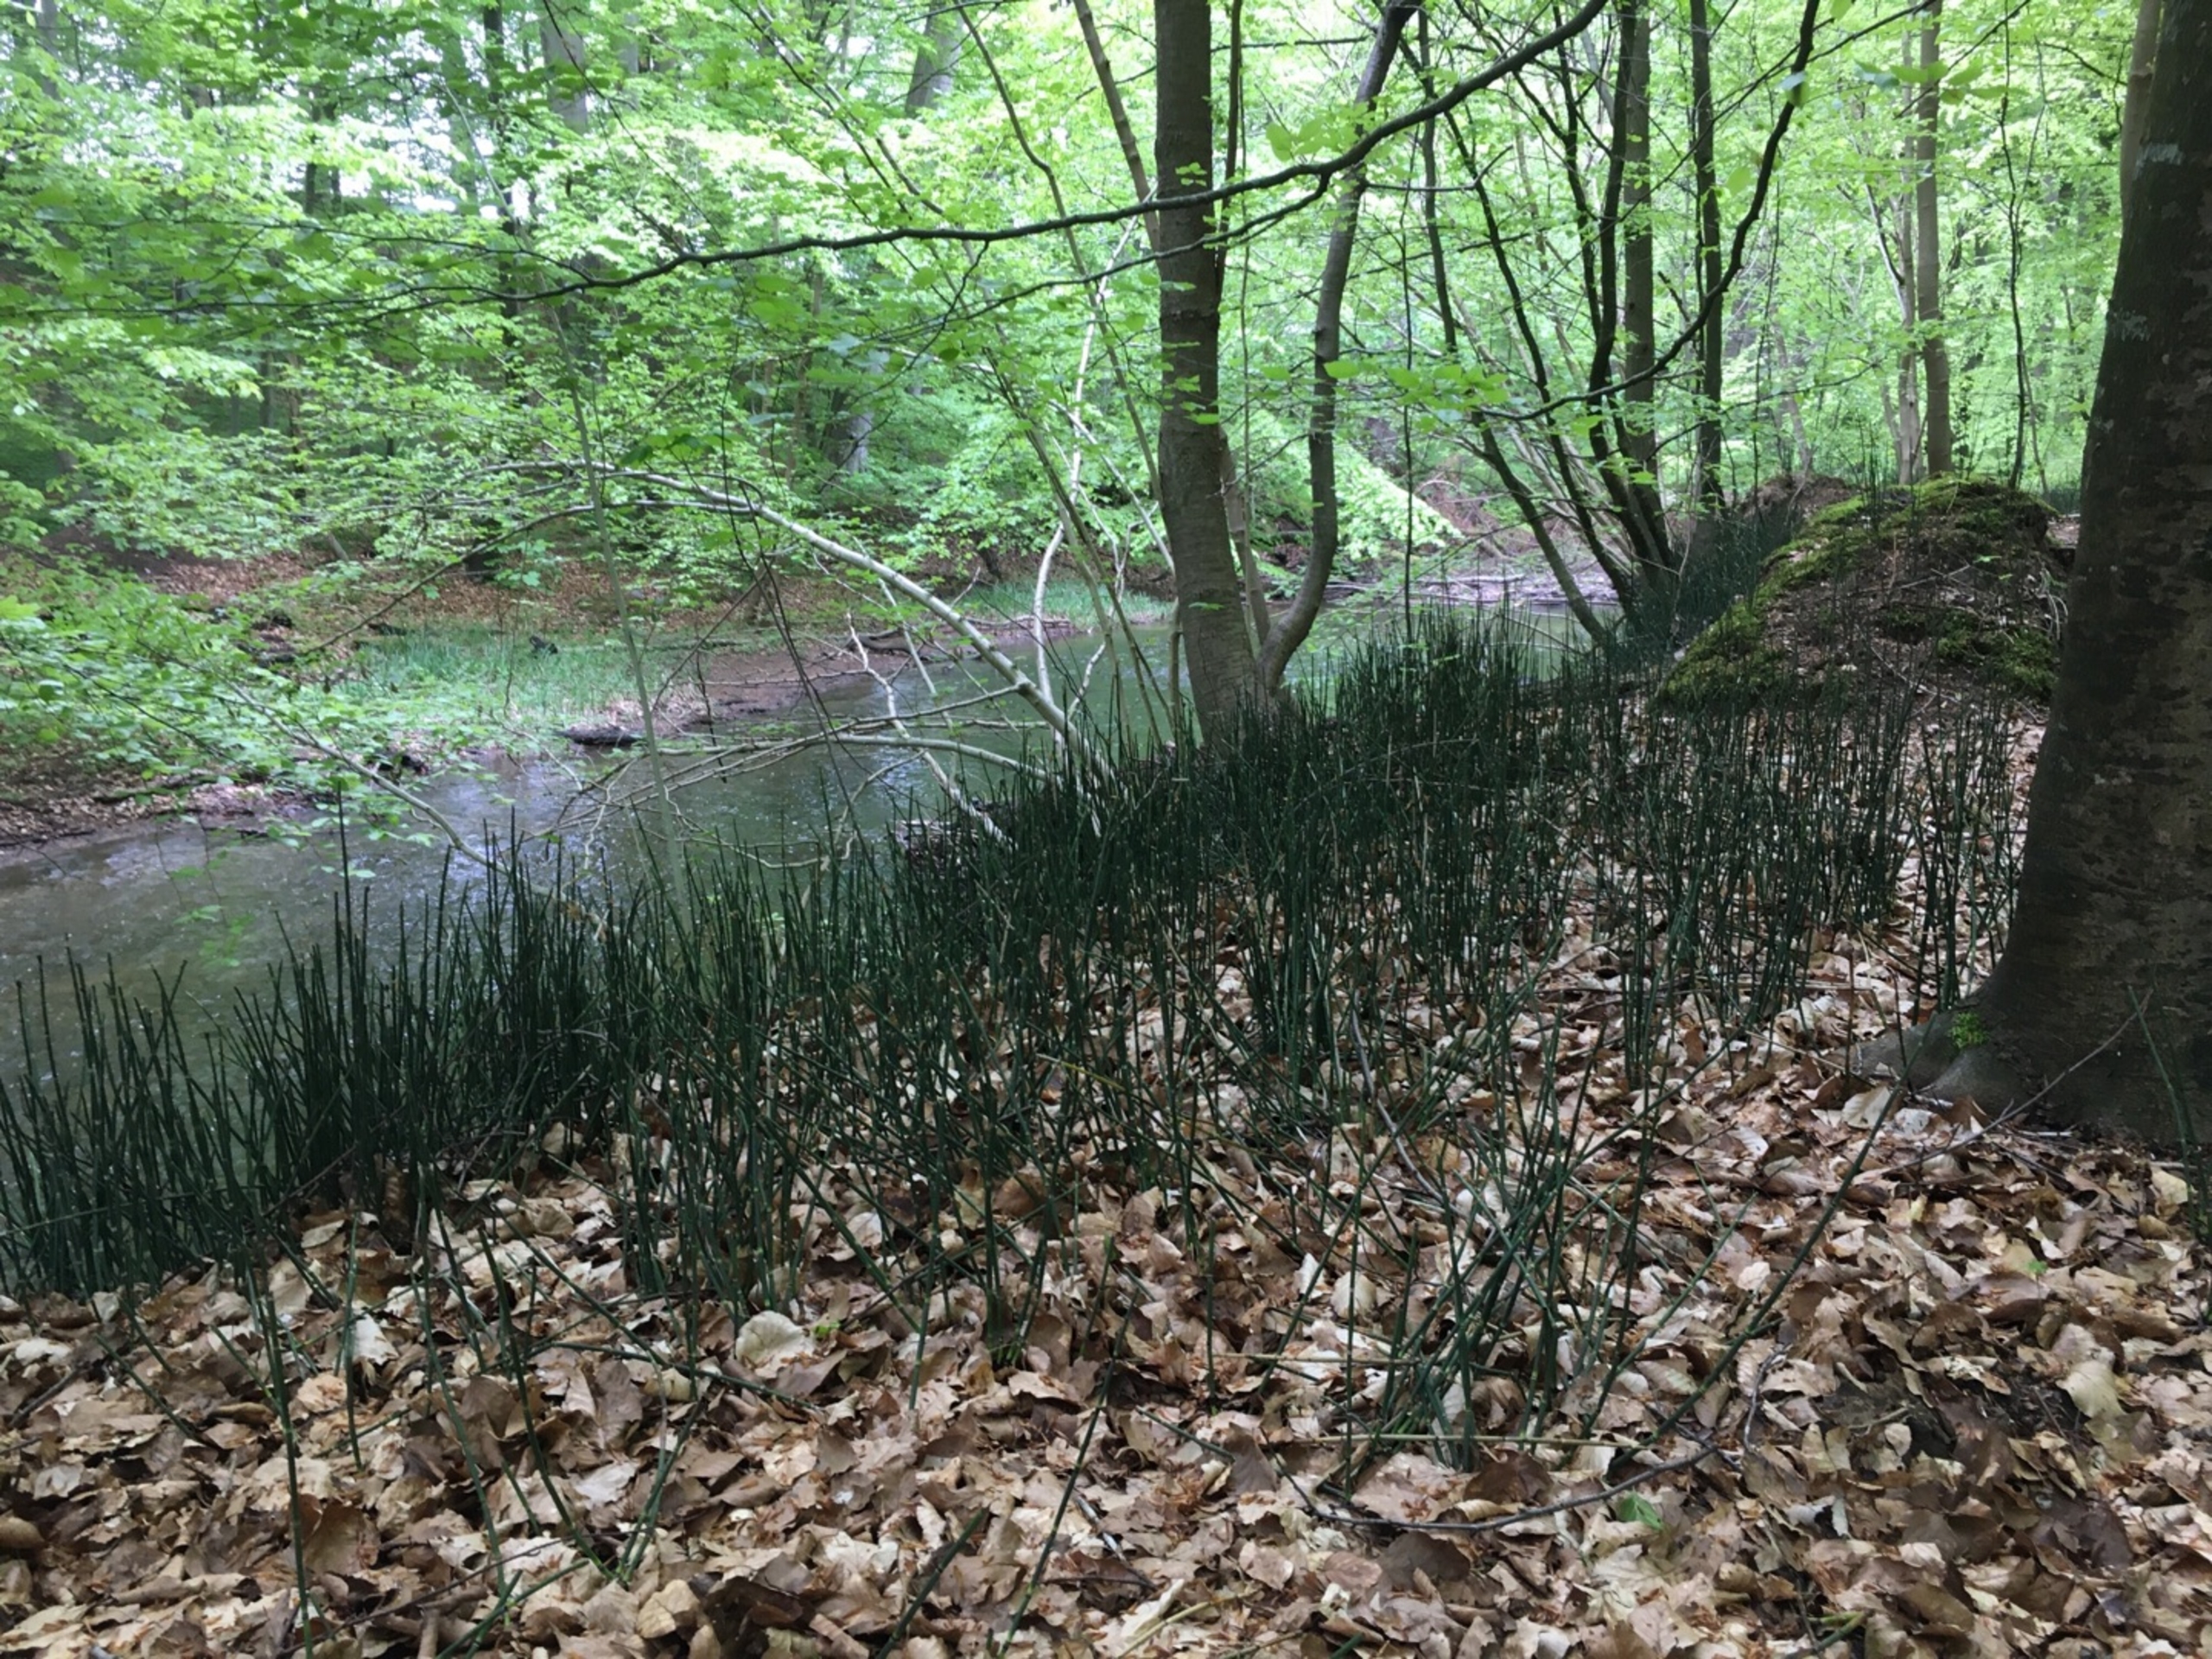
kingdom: Plantae
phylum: Tracheophyta
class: Polypodiopsida
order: Equisetales
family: Equisetaceae
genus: Equisetum
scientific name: Equisetum hyemale
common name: Skavgræs
